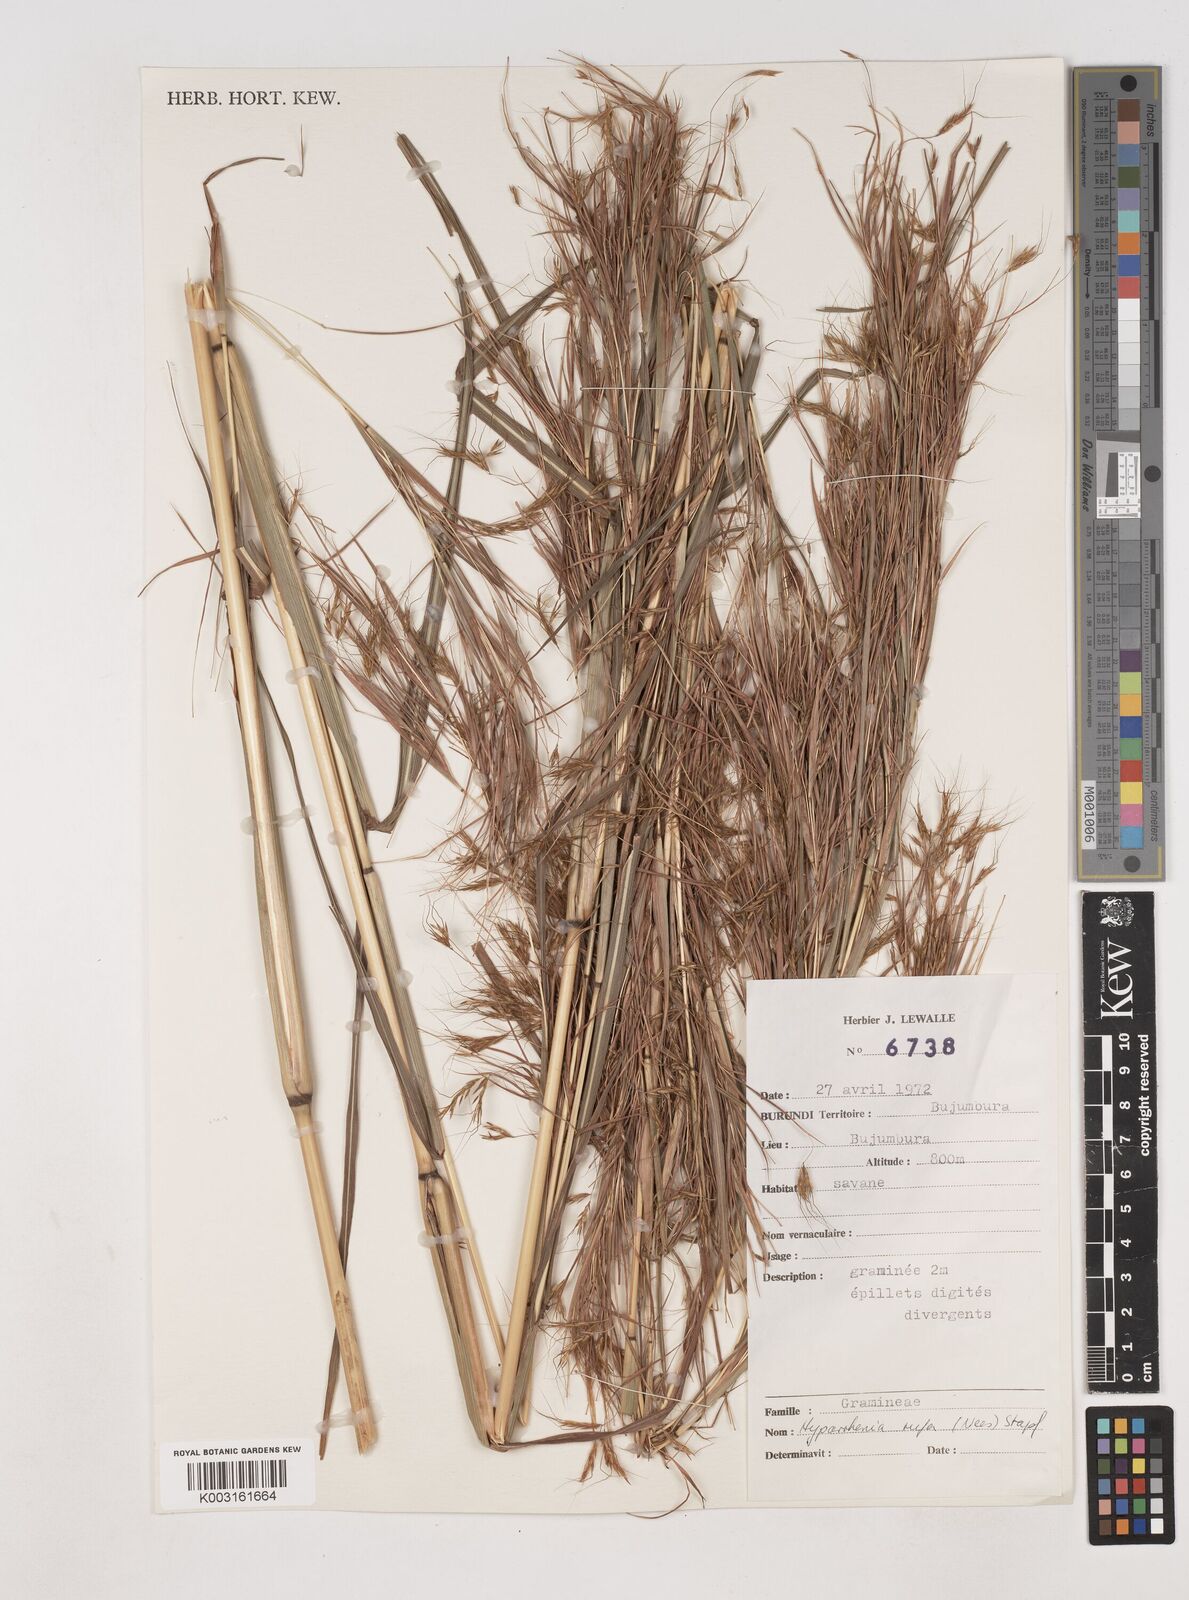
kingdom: Plantae
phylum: Tracheophyta
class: Liliopsida
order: Poales
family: Poaceae
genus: Hyparrhenia
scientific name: Hyparrhenia rufa
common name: Jaraguagrass
